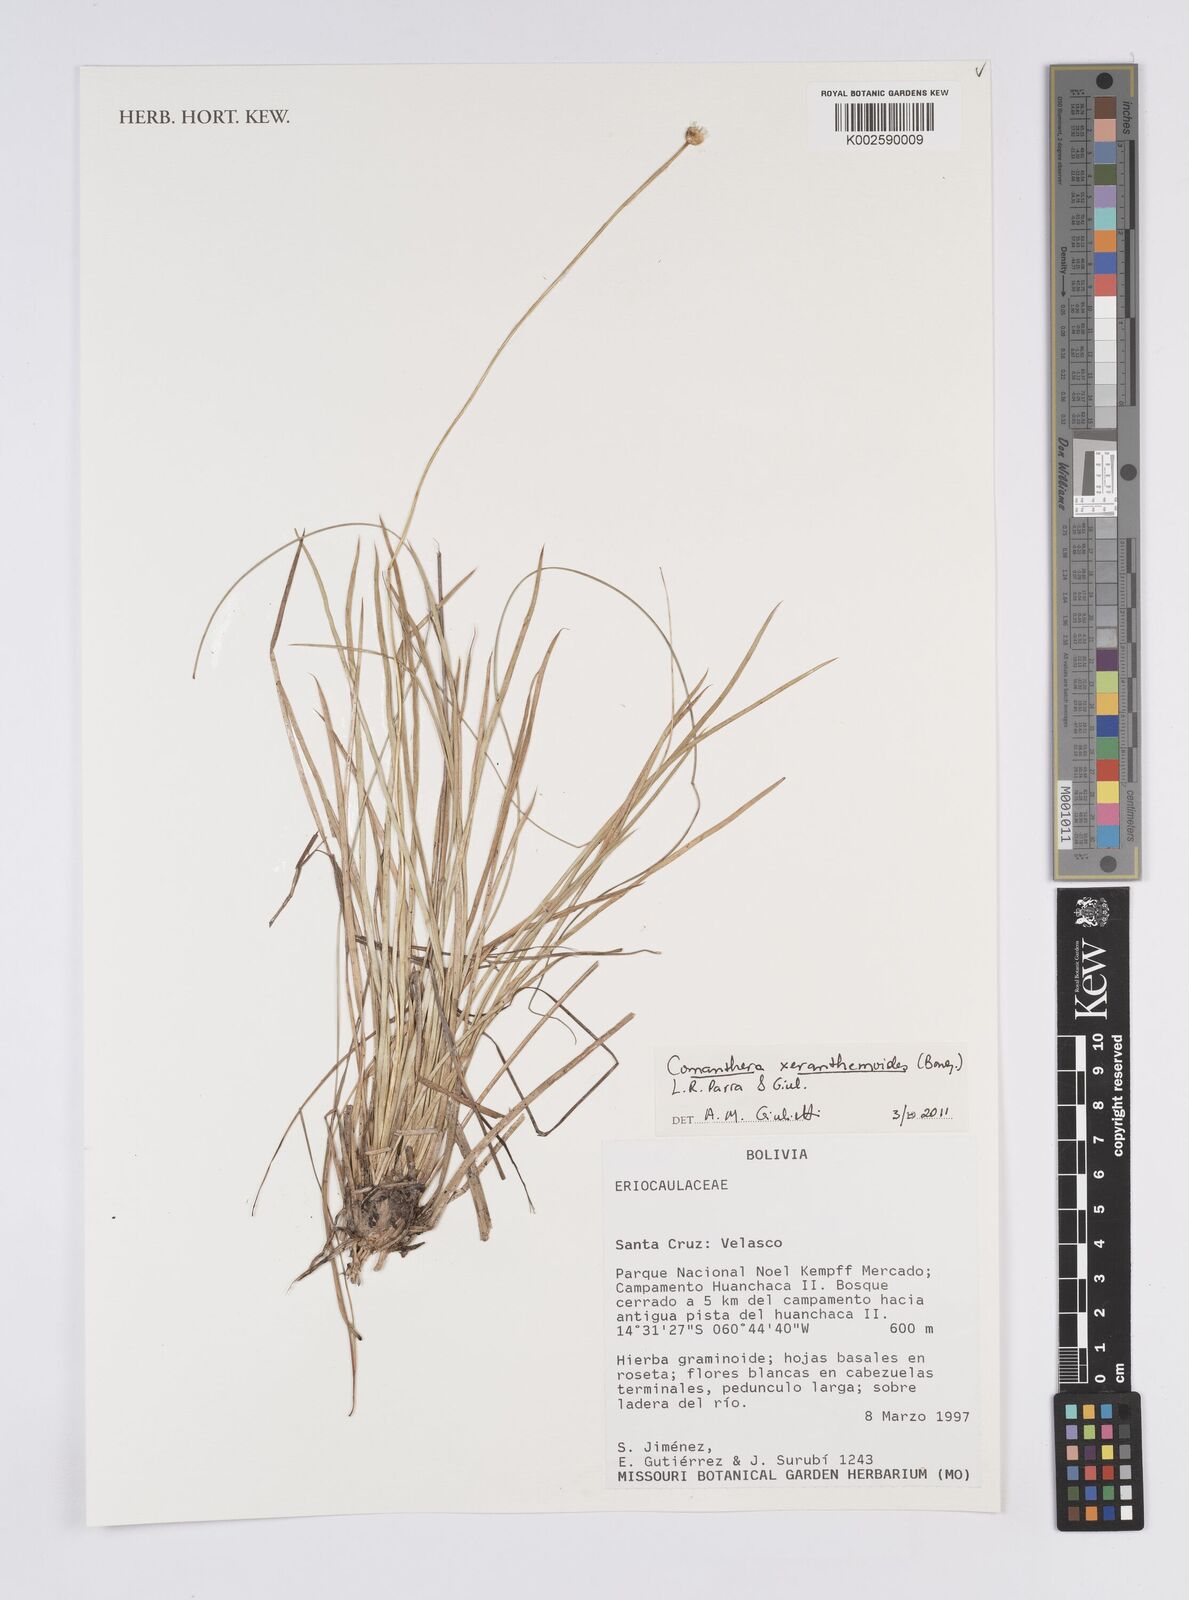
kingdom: Plantae
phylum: Tracheophyta
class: Liliopsida
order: Poales
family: Eriocaulaceae
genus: Comanthera
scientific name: Comanthera xeranthemoides
